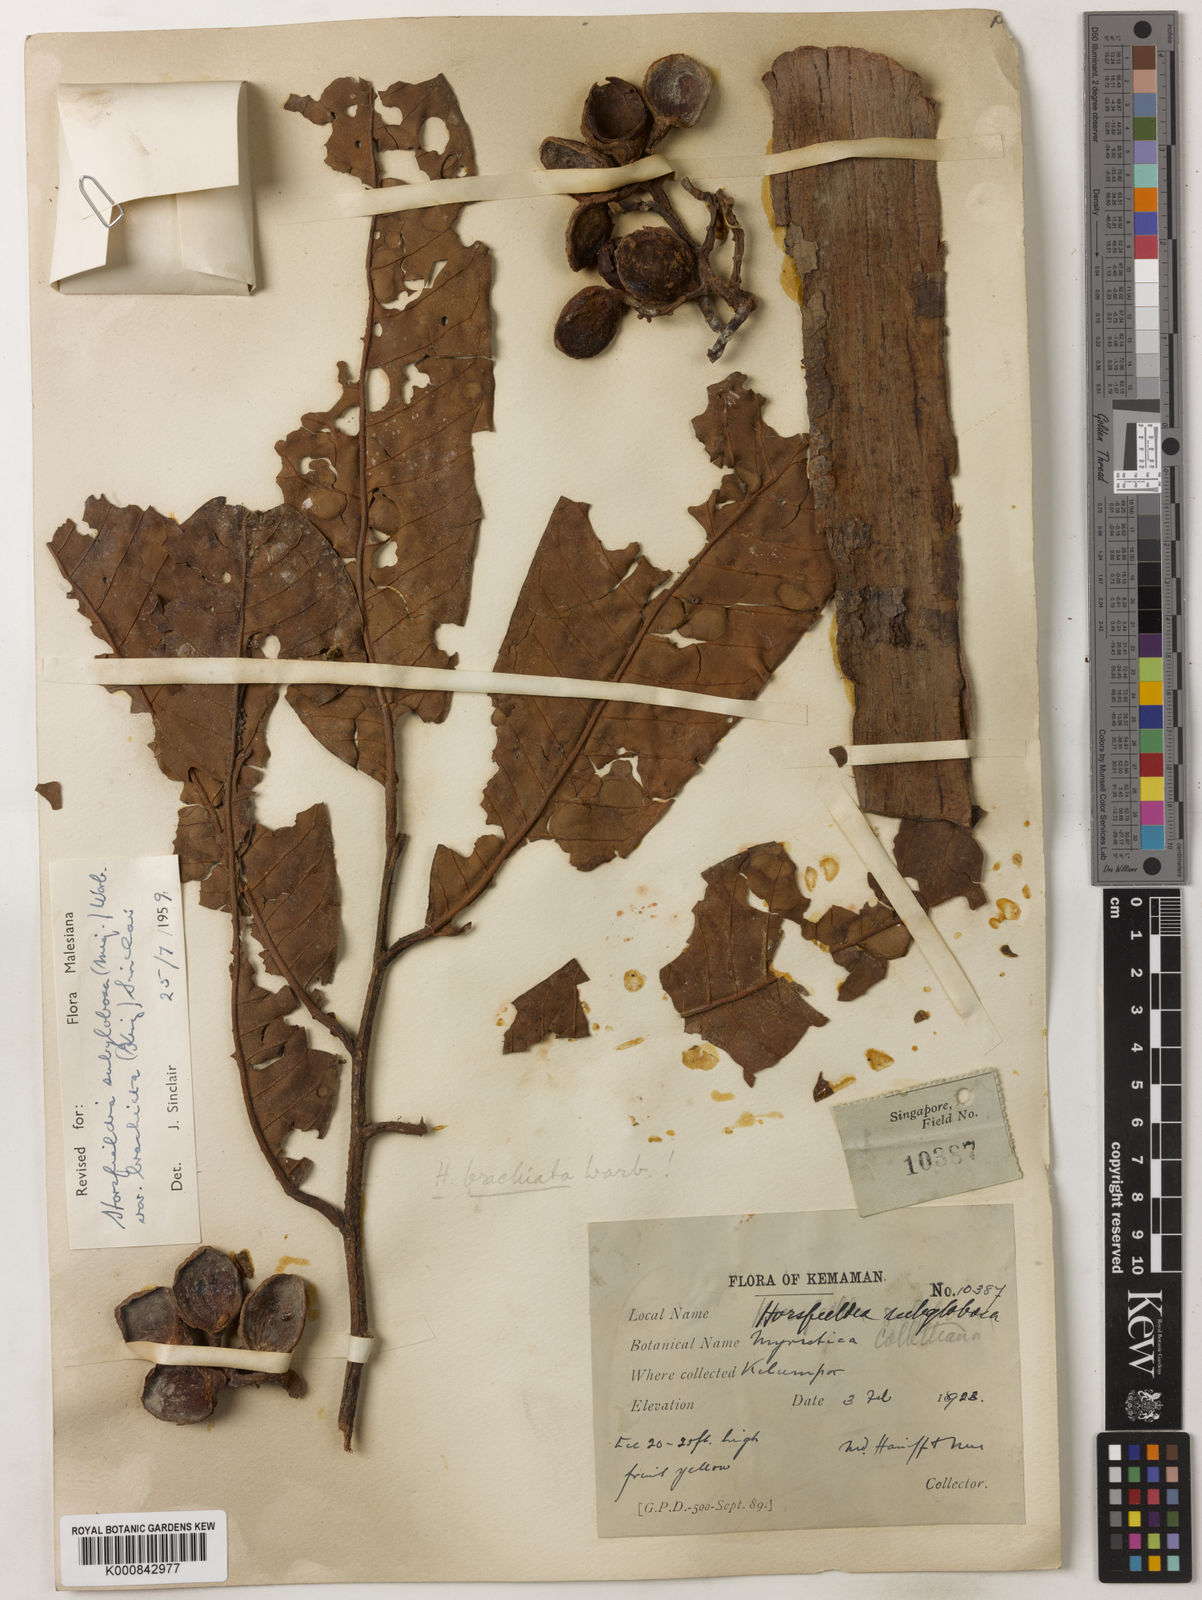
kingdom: Plantae
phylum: Tracheophyta
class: Magnoliopsida
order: Magnoliales
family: Myristicaceae
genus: Horsfieldia
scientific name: Horsfieldia brachiata
